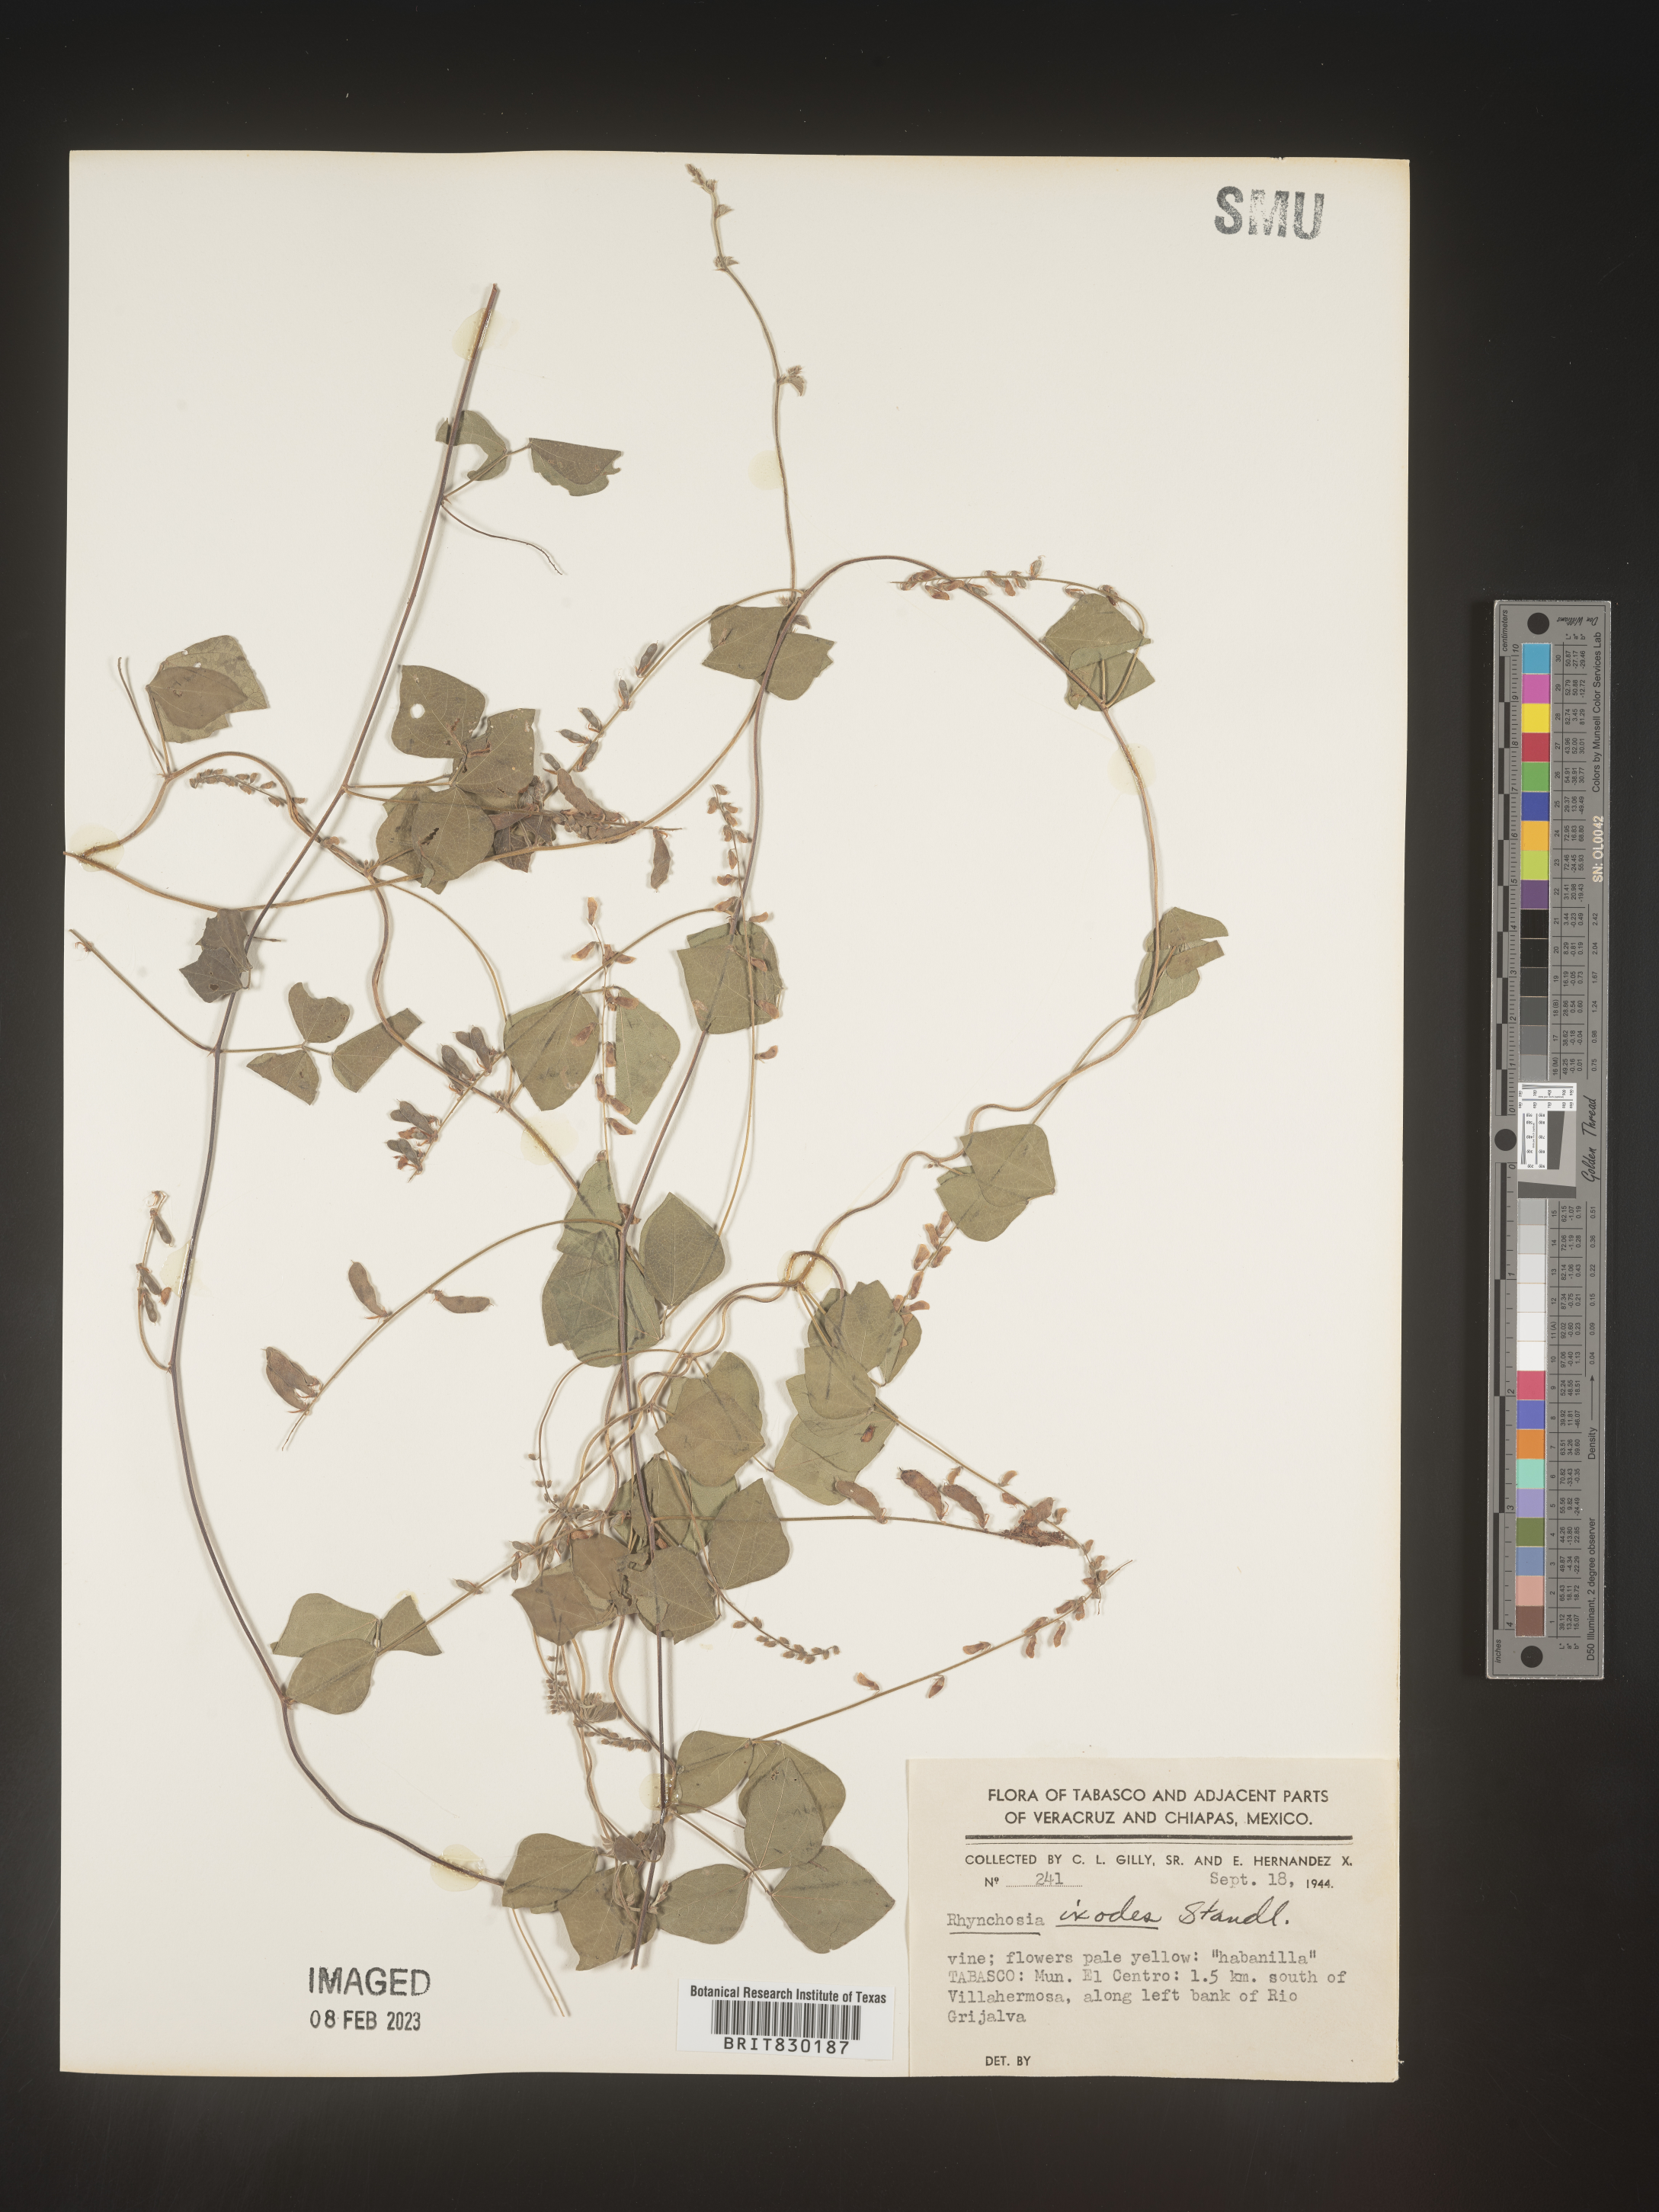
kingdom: Plantae
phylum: Tracheophyta
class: Magnoliopsida
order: Fabales
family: Fabaceae
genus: Rhynchosia
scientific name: Rhynchosia
